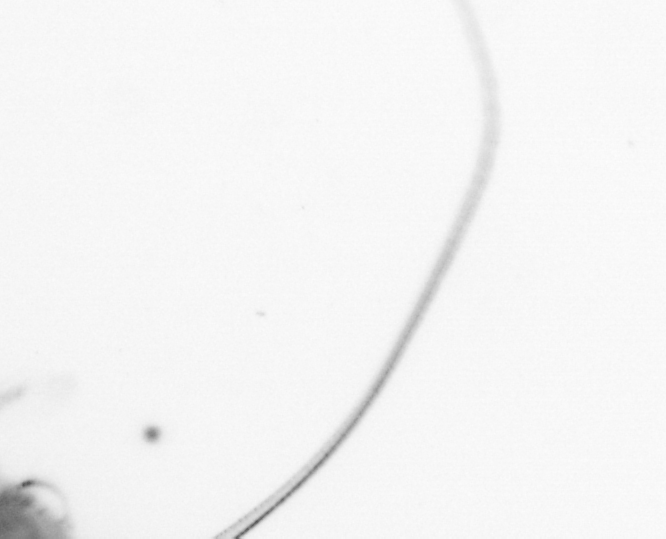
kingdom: Chromista
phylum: Ochrophyta
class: Bacillariophyceae
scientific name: Bacillariophyceae
